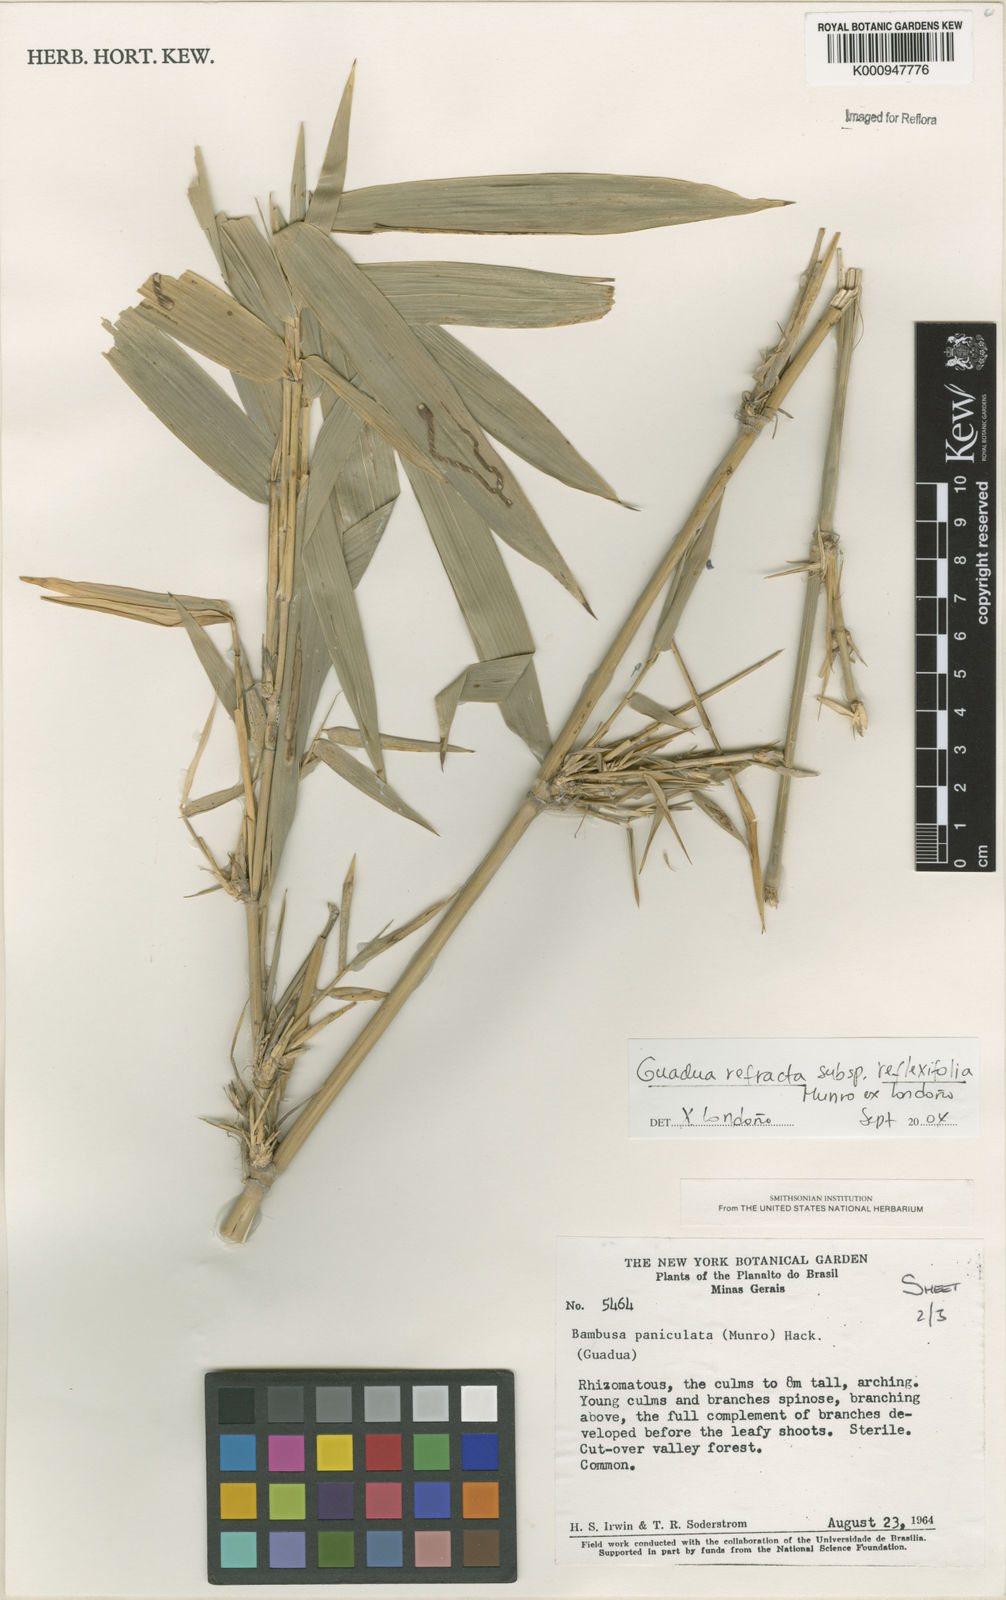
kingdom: Plantae
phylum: Tracheophyta
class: Liliopsida
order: Poales
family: Poaceae
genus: Guadua
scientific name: Guadua
